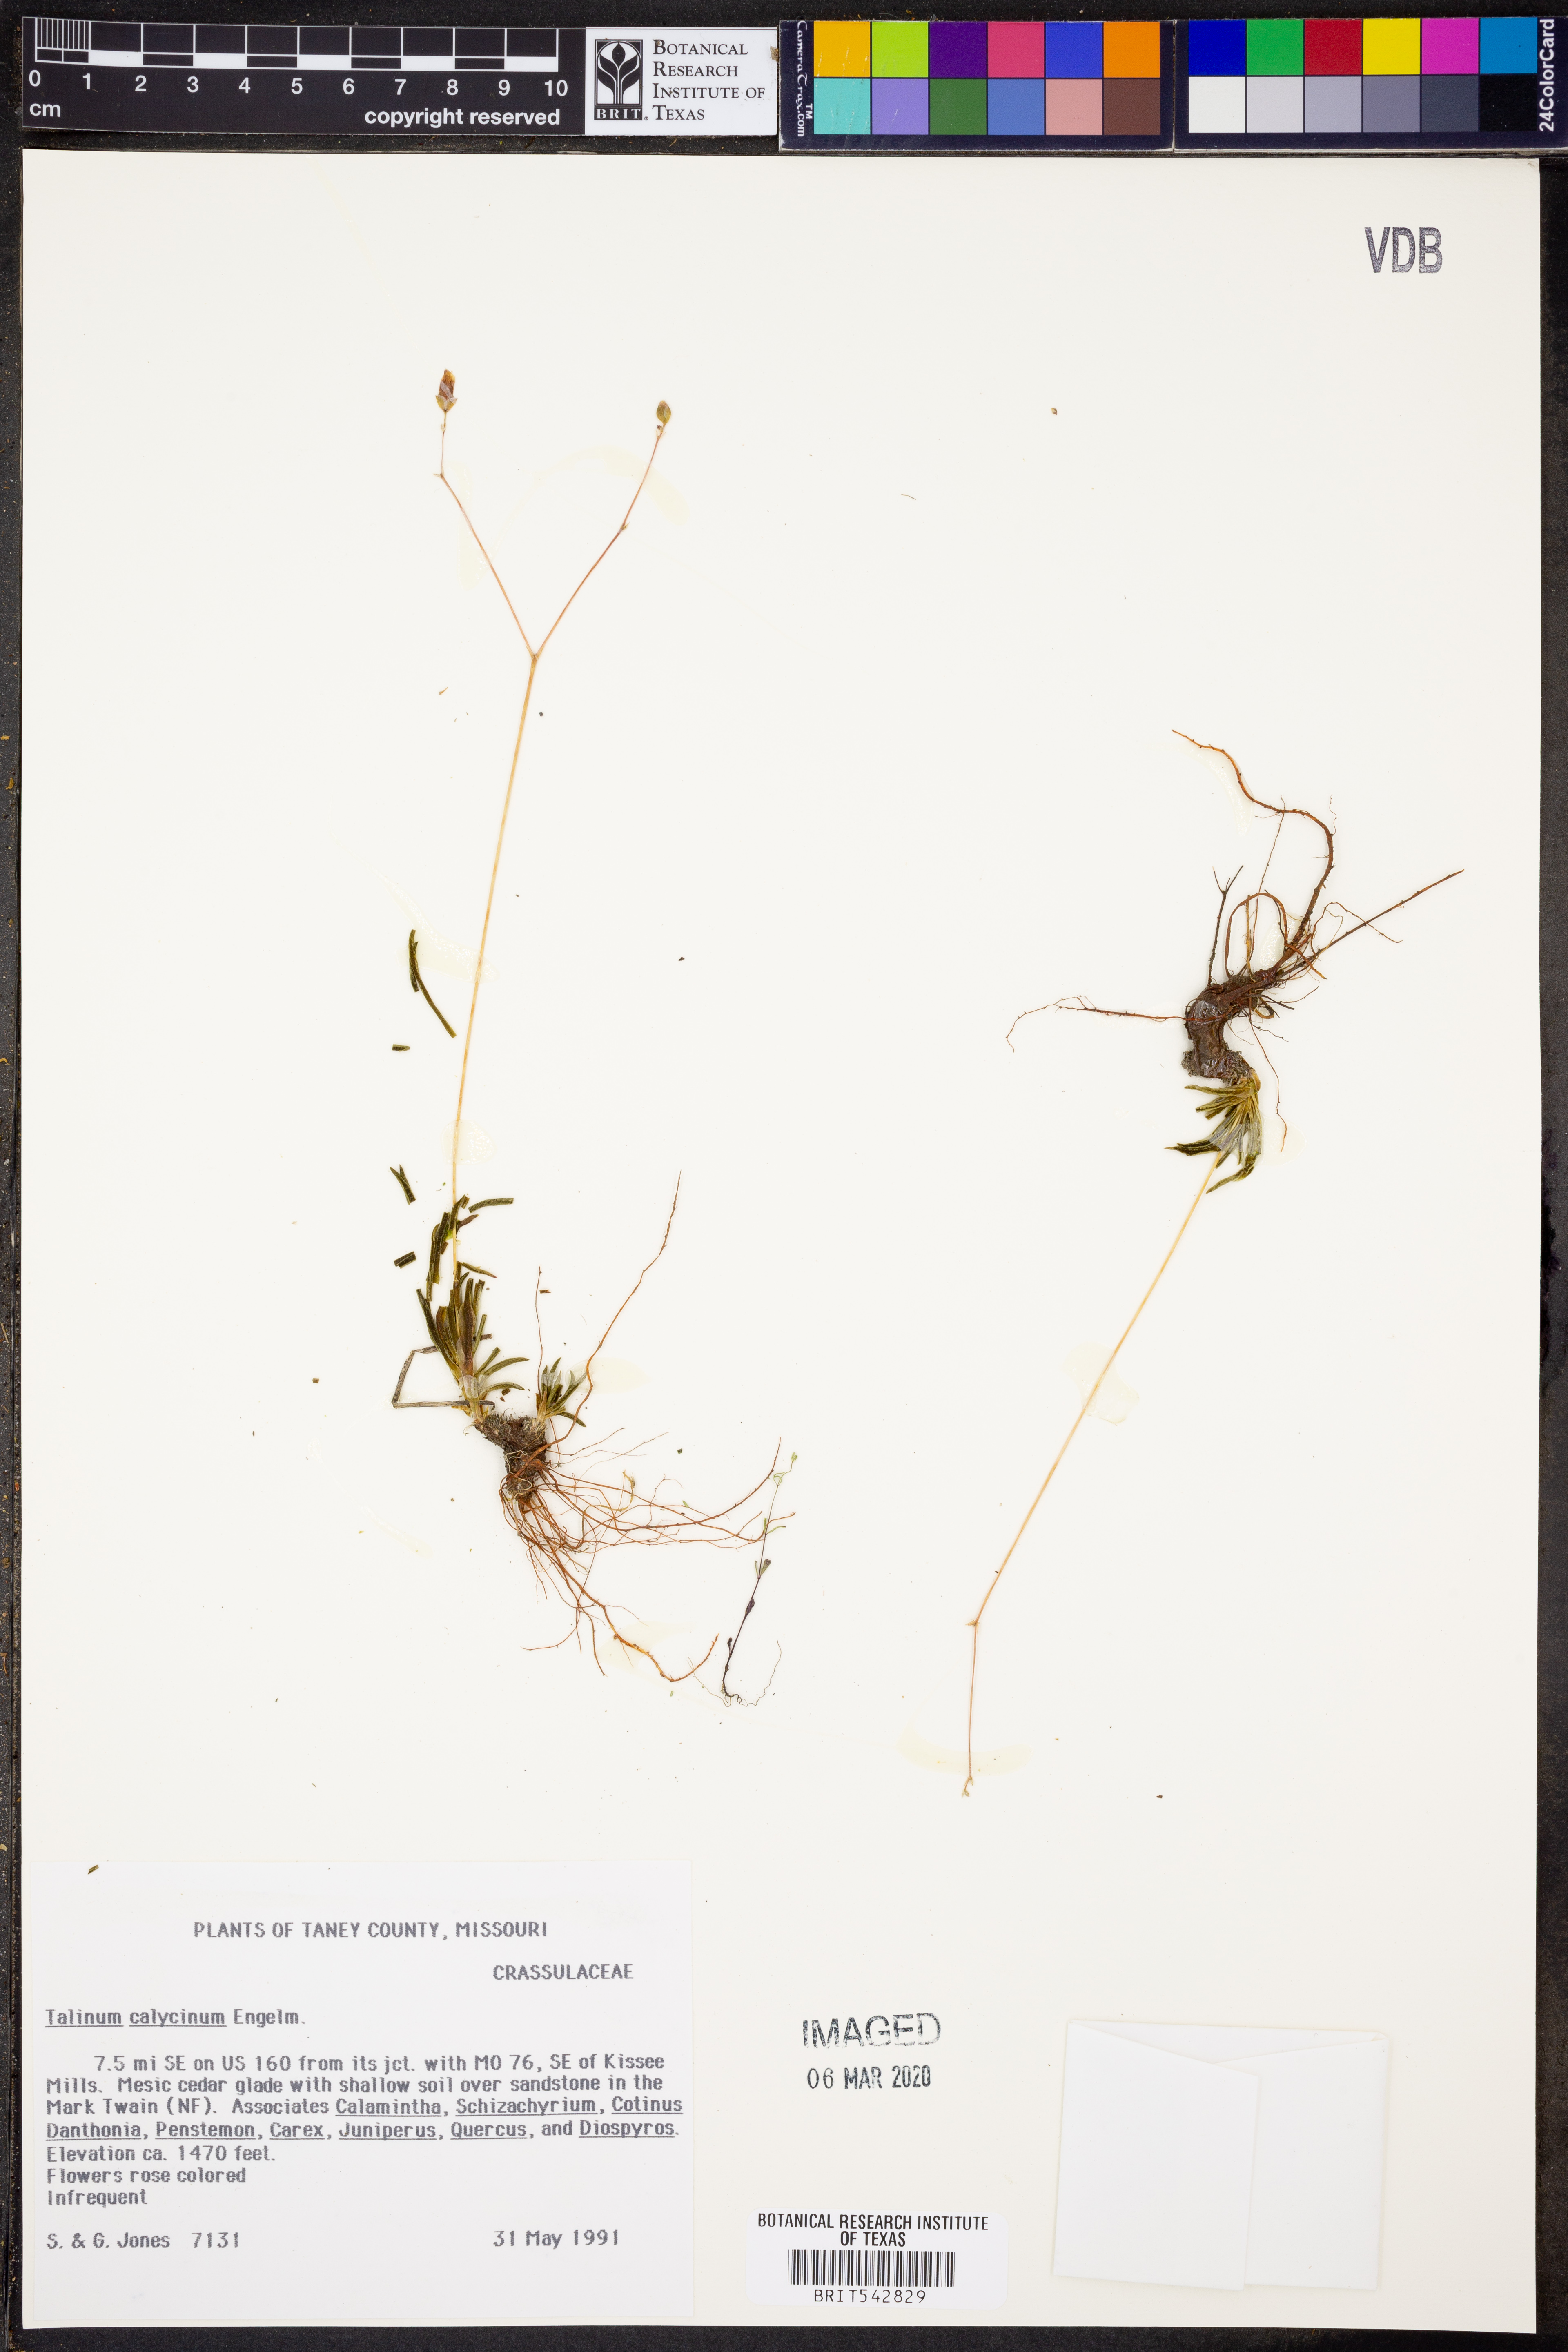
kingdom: Plantae
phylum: Tracheophyta
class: Magnoliopsida
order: Caryophyllales
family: Montiaceae
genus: Phemeranthus
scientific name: Phemeranthus calycinus
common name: Largeflower fameflower
